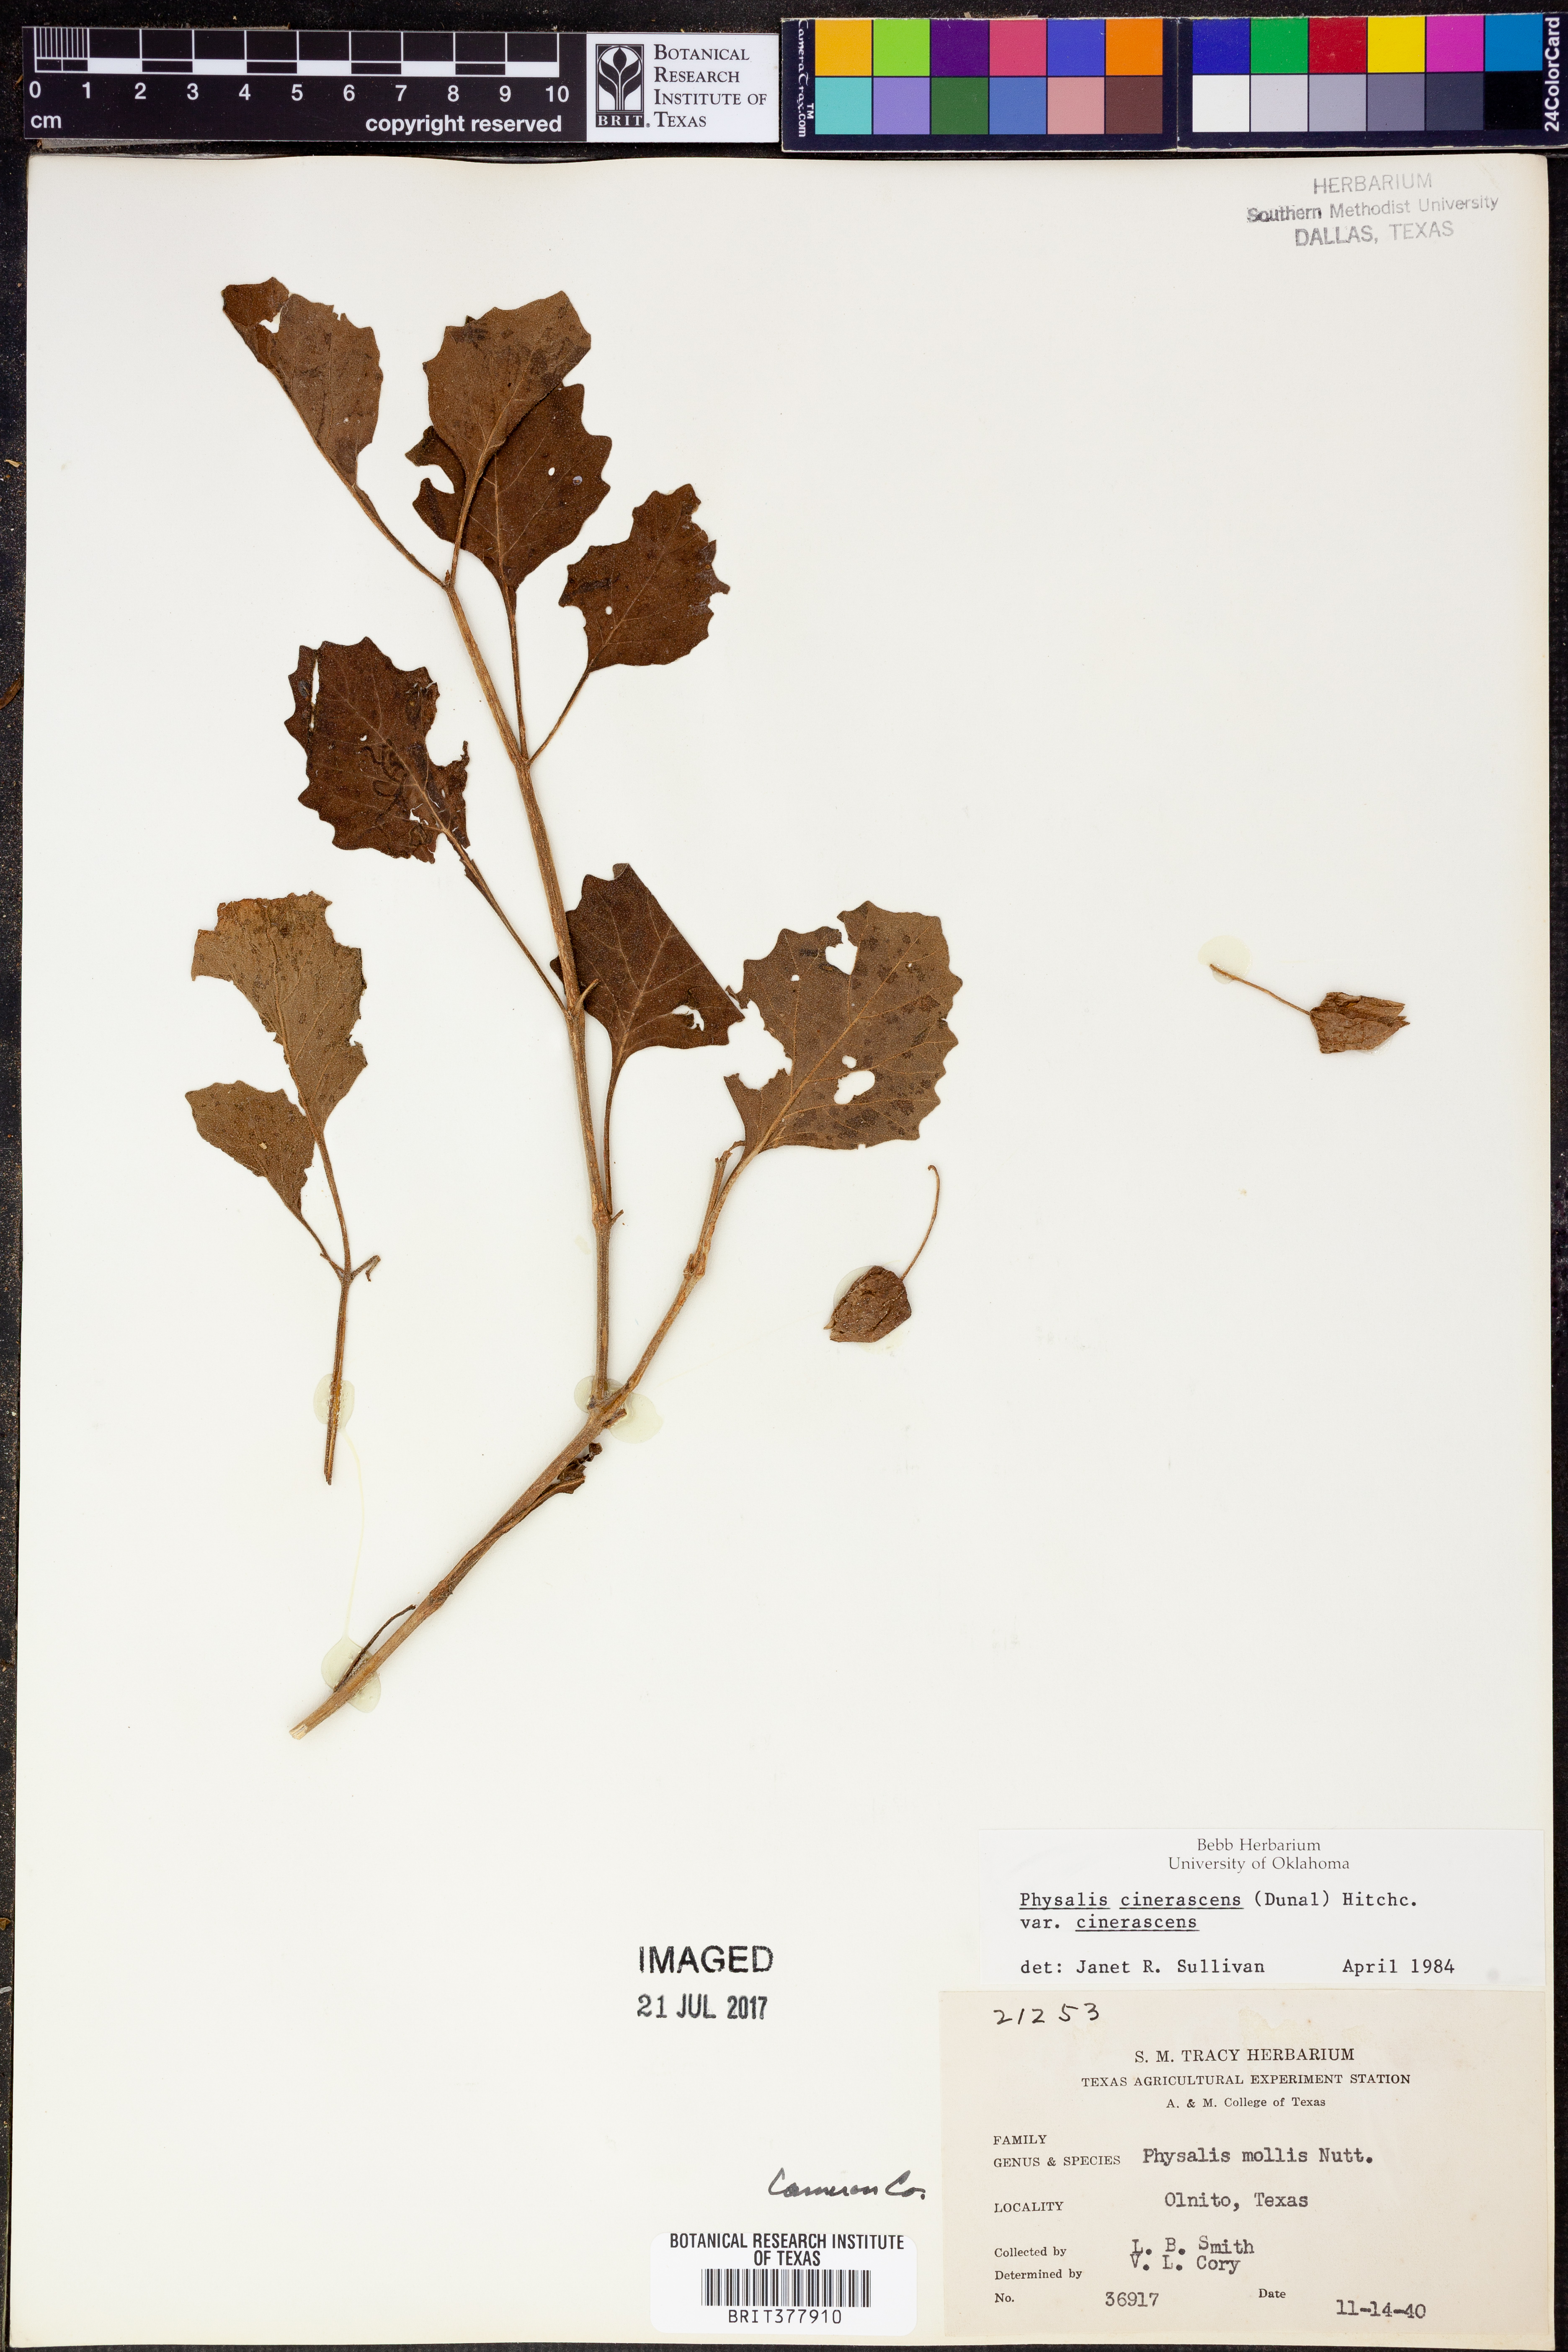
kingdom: Plantae
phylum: Tracheophyta
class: Magnoliopsida
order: Solanales
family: Solanaceae
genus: Physalis
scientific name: Physalis cinerascens
